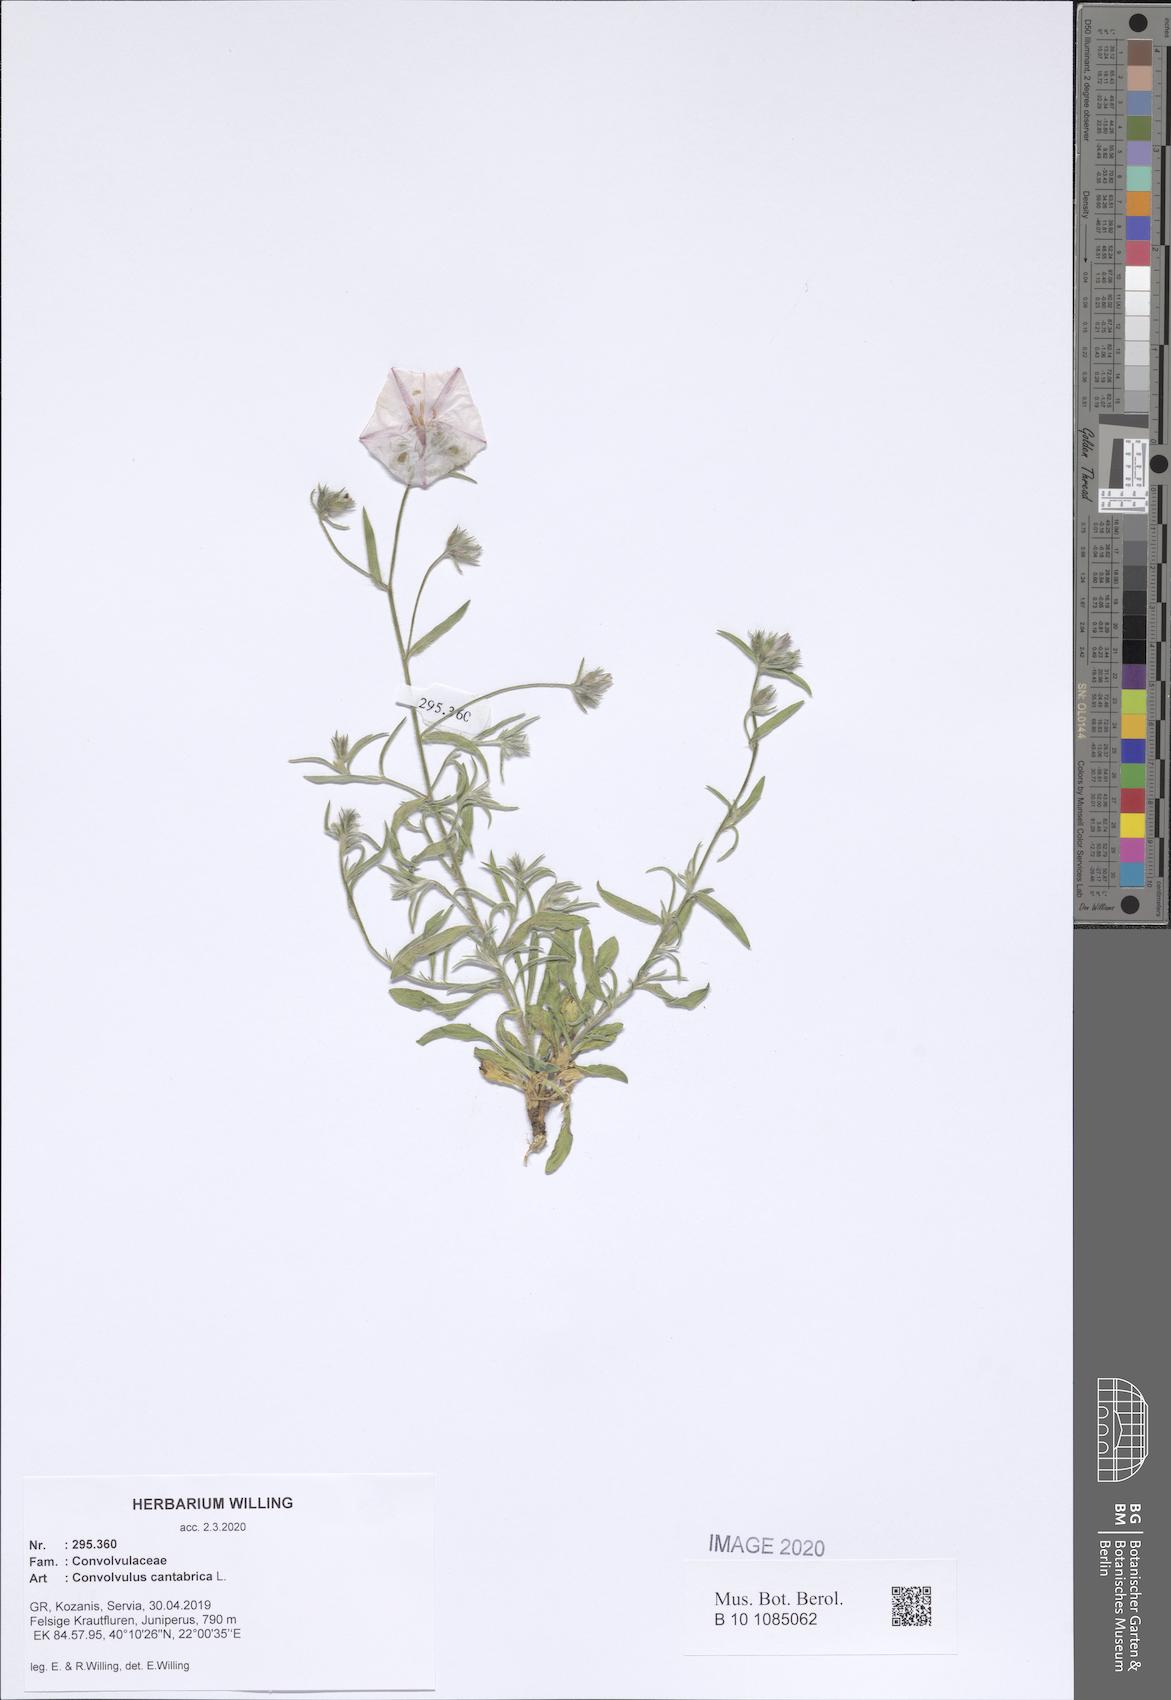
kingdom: Plantae
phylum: Tracheophyta
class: Magnoliopsida
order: Solanales
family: Convolvulaceae
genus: Convolvulus
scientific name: Convolvulus cantabrica
